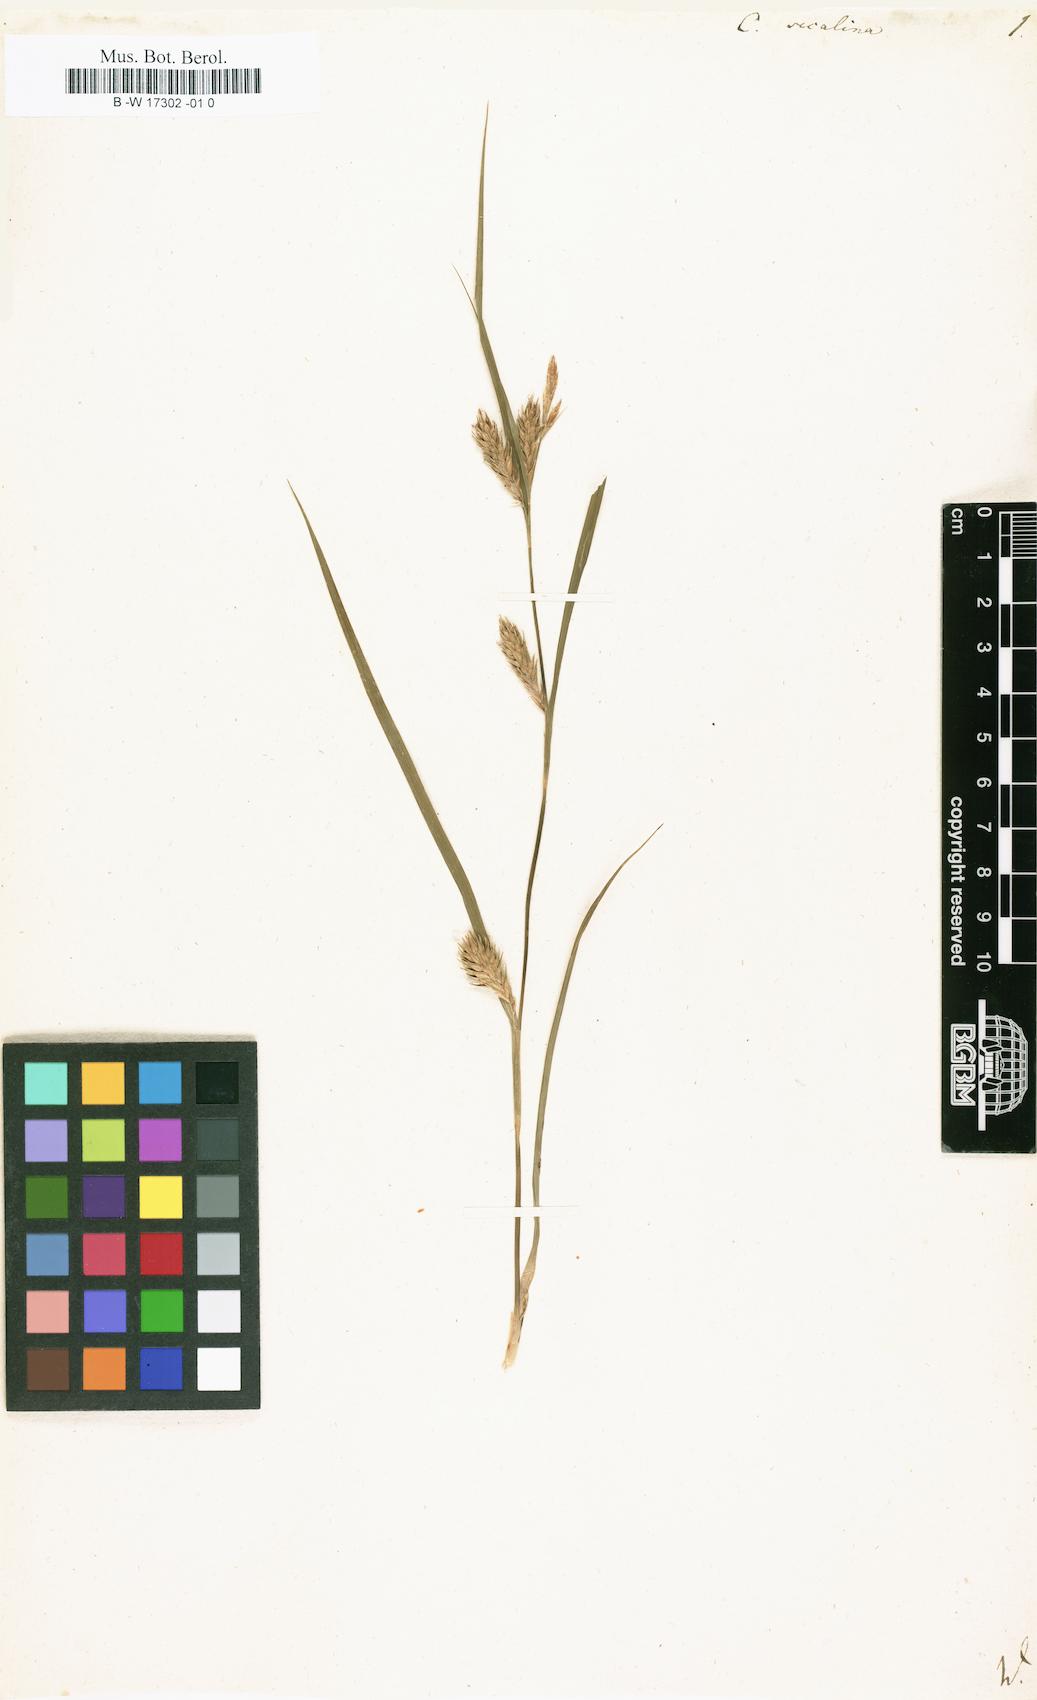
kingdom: Plantae
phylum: Tracheophyta
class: Liliopsida
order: Poales
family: Cyperaceae
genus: Carex
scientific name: Carex secalina
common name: Rye sedge
